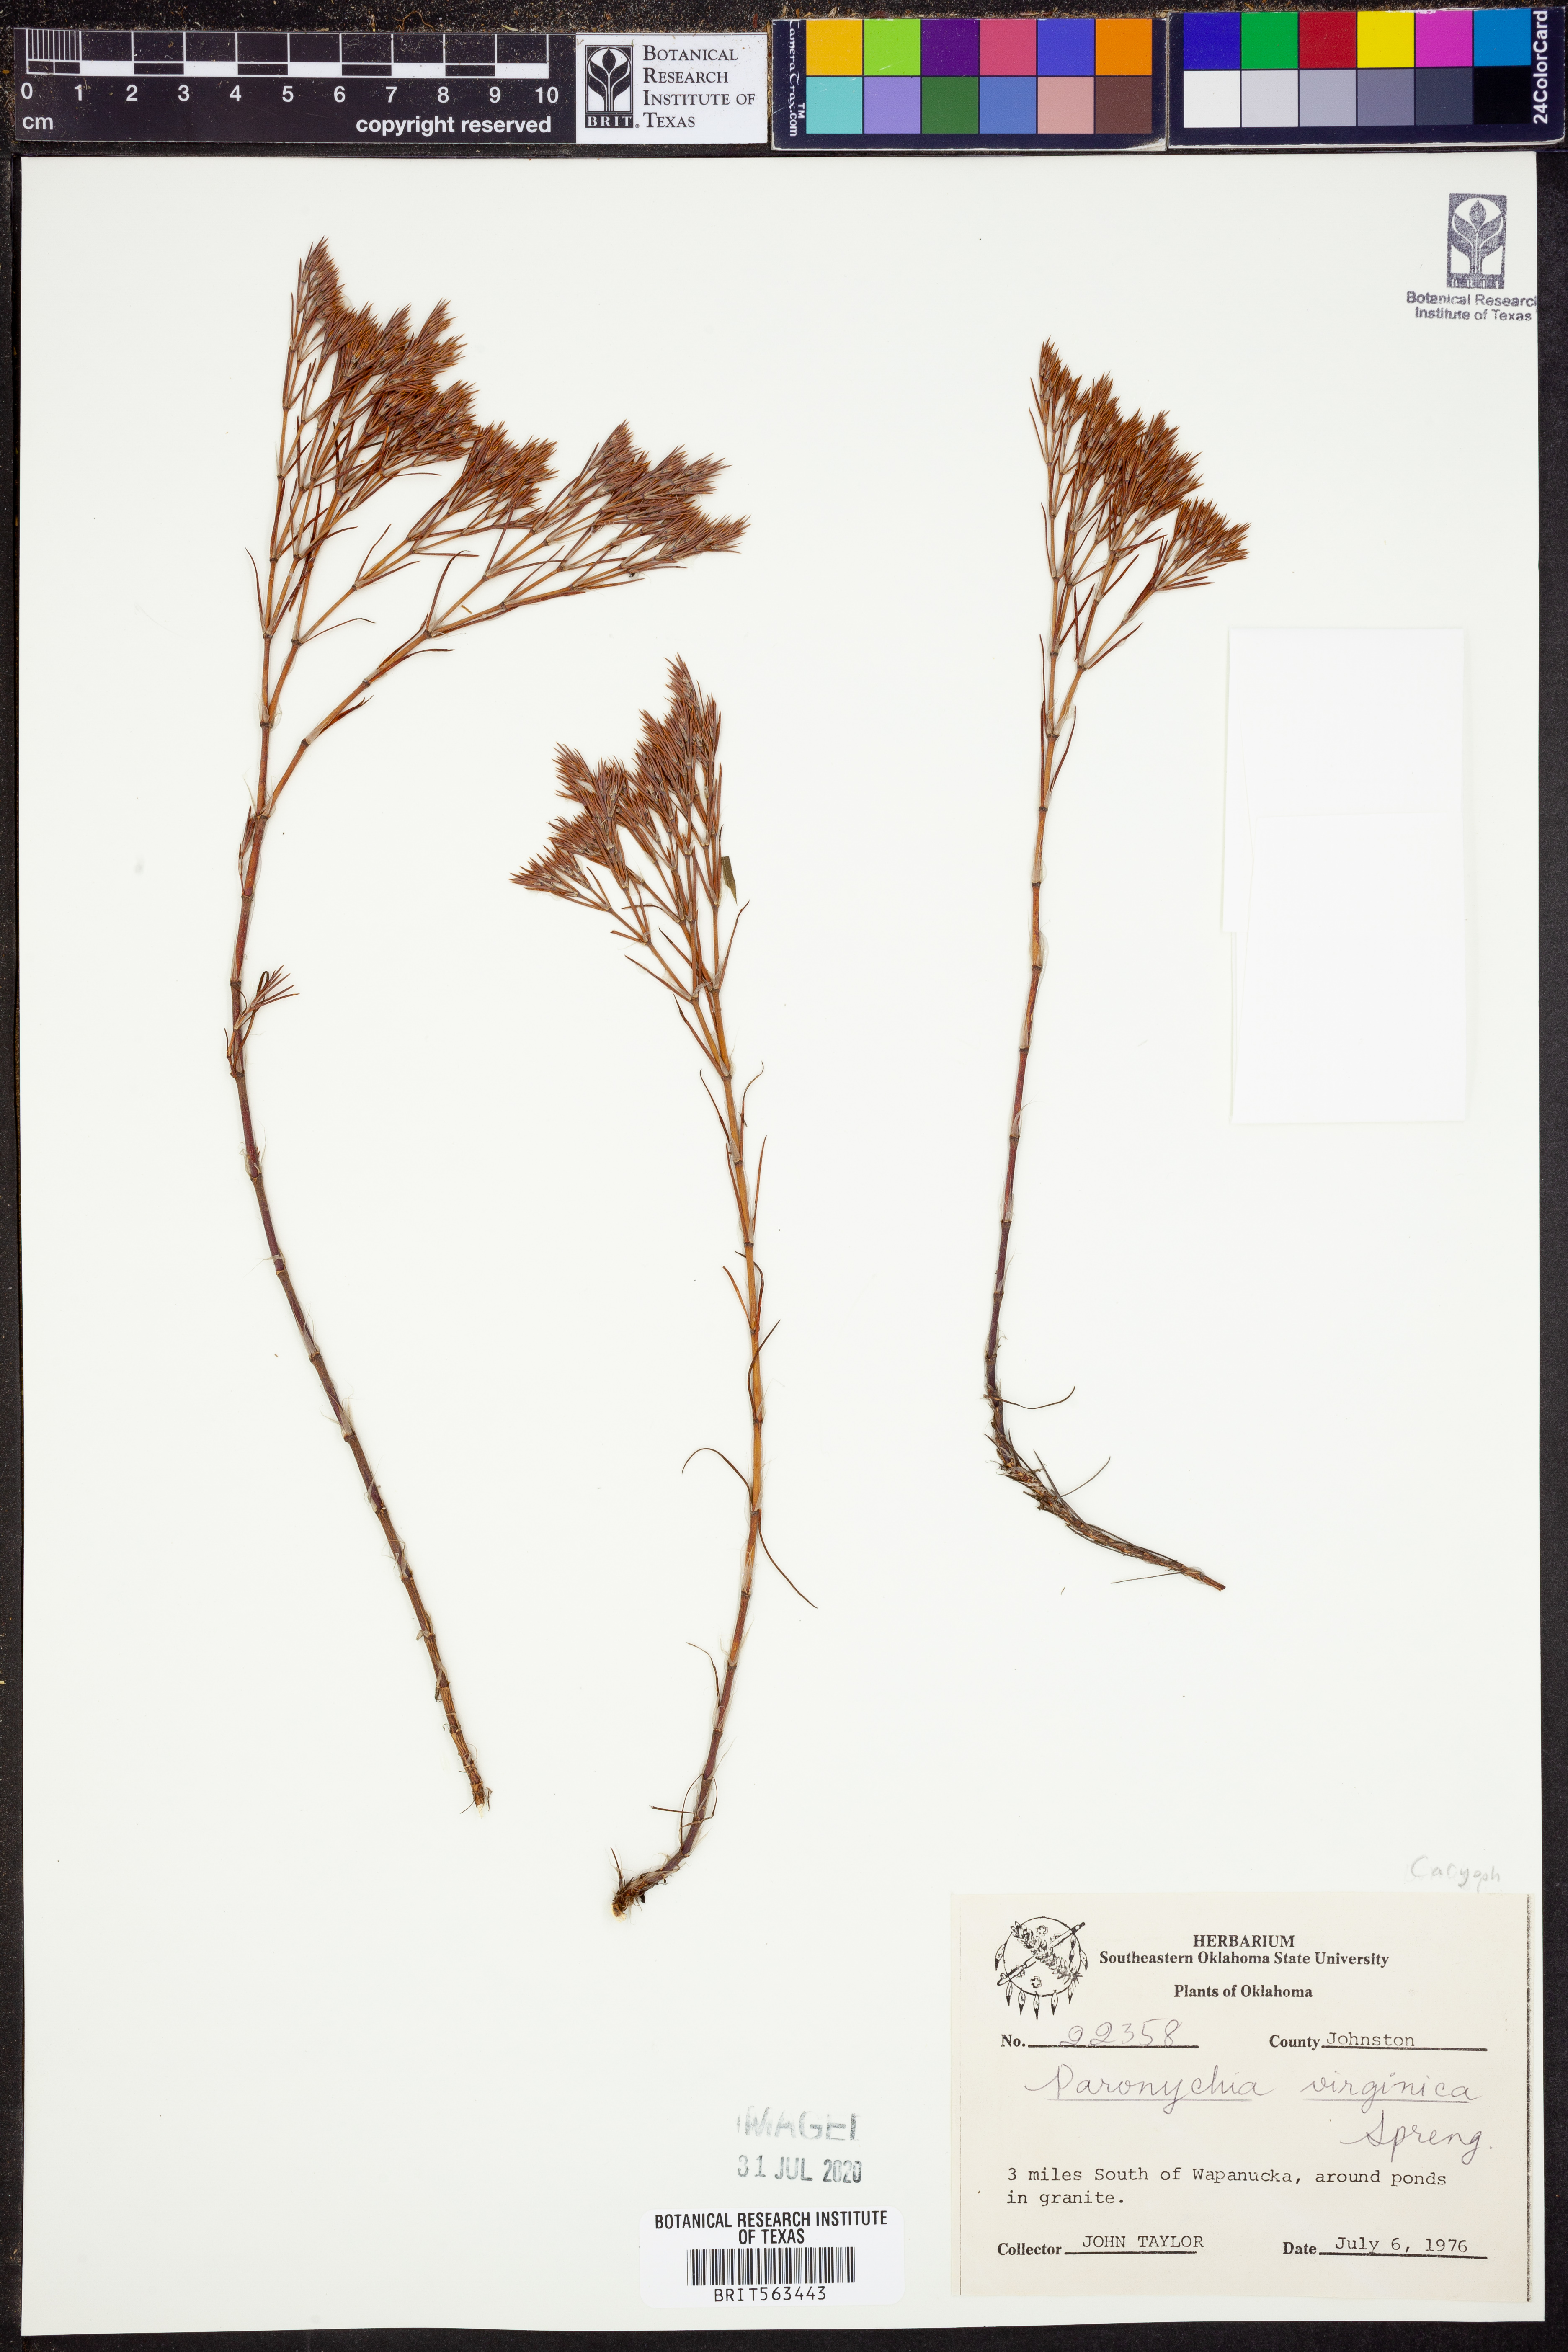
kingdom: Plantae
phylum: Tracheophyta
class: Magnoliopsida
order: Caryophyllales
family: Caryophyllaceae
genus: Paronychia
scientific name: Paronychia virginica
